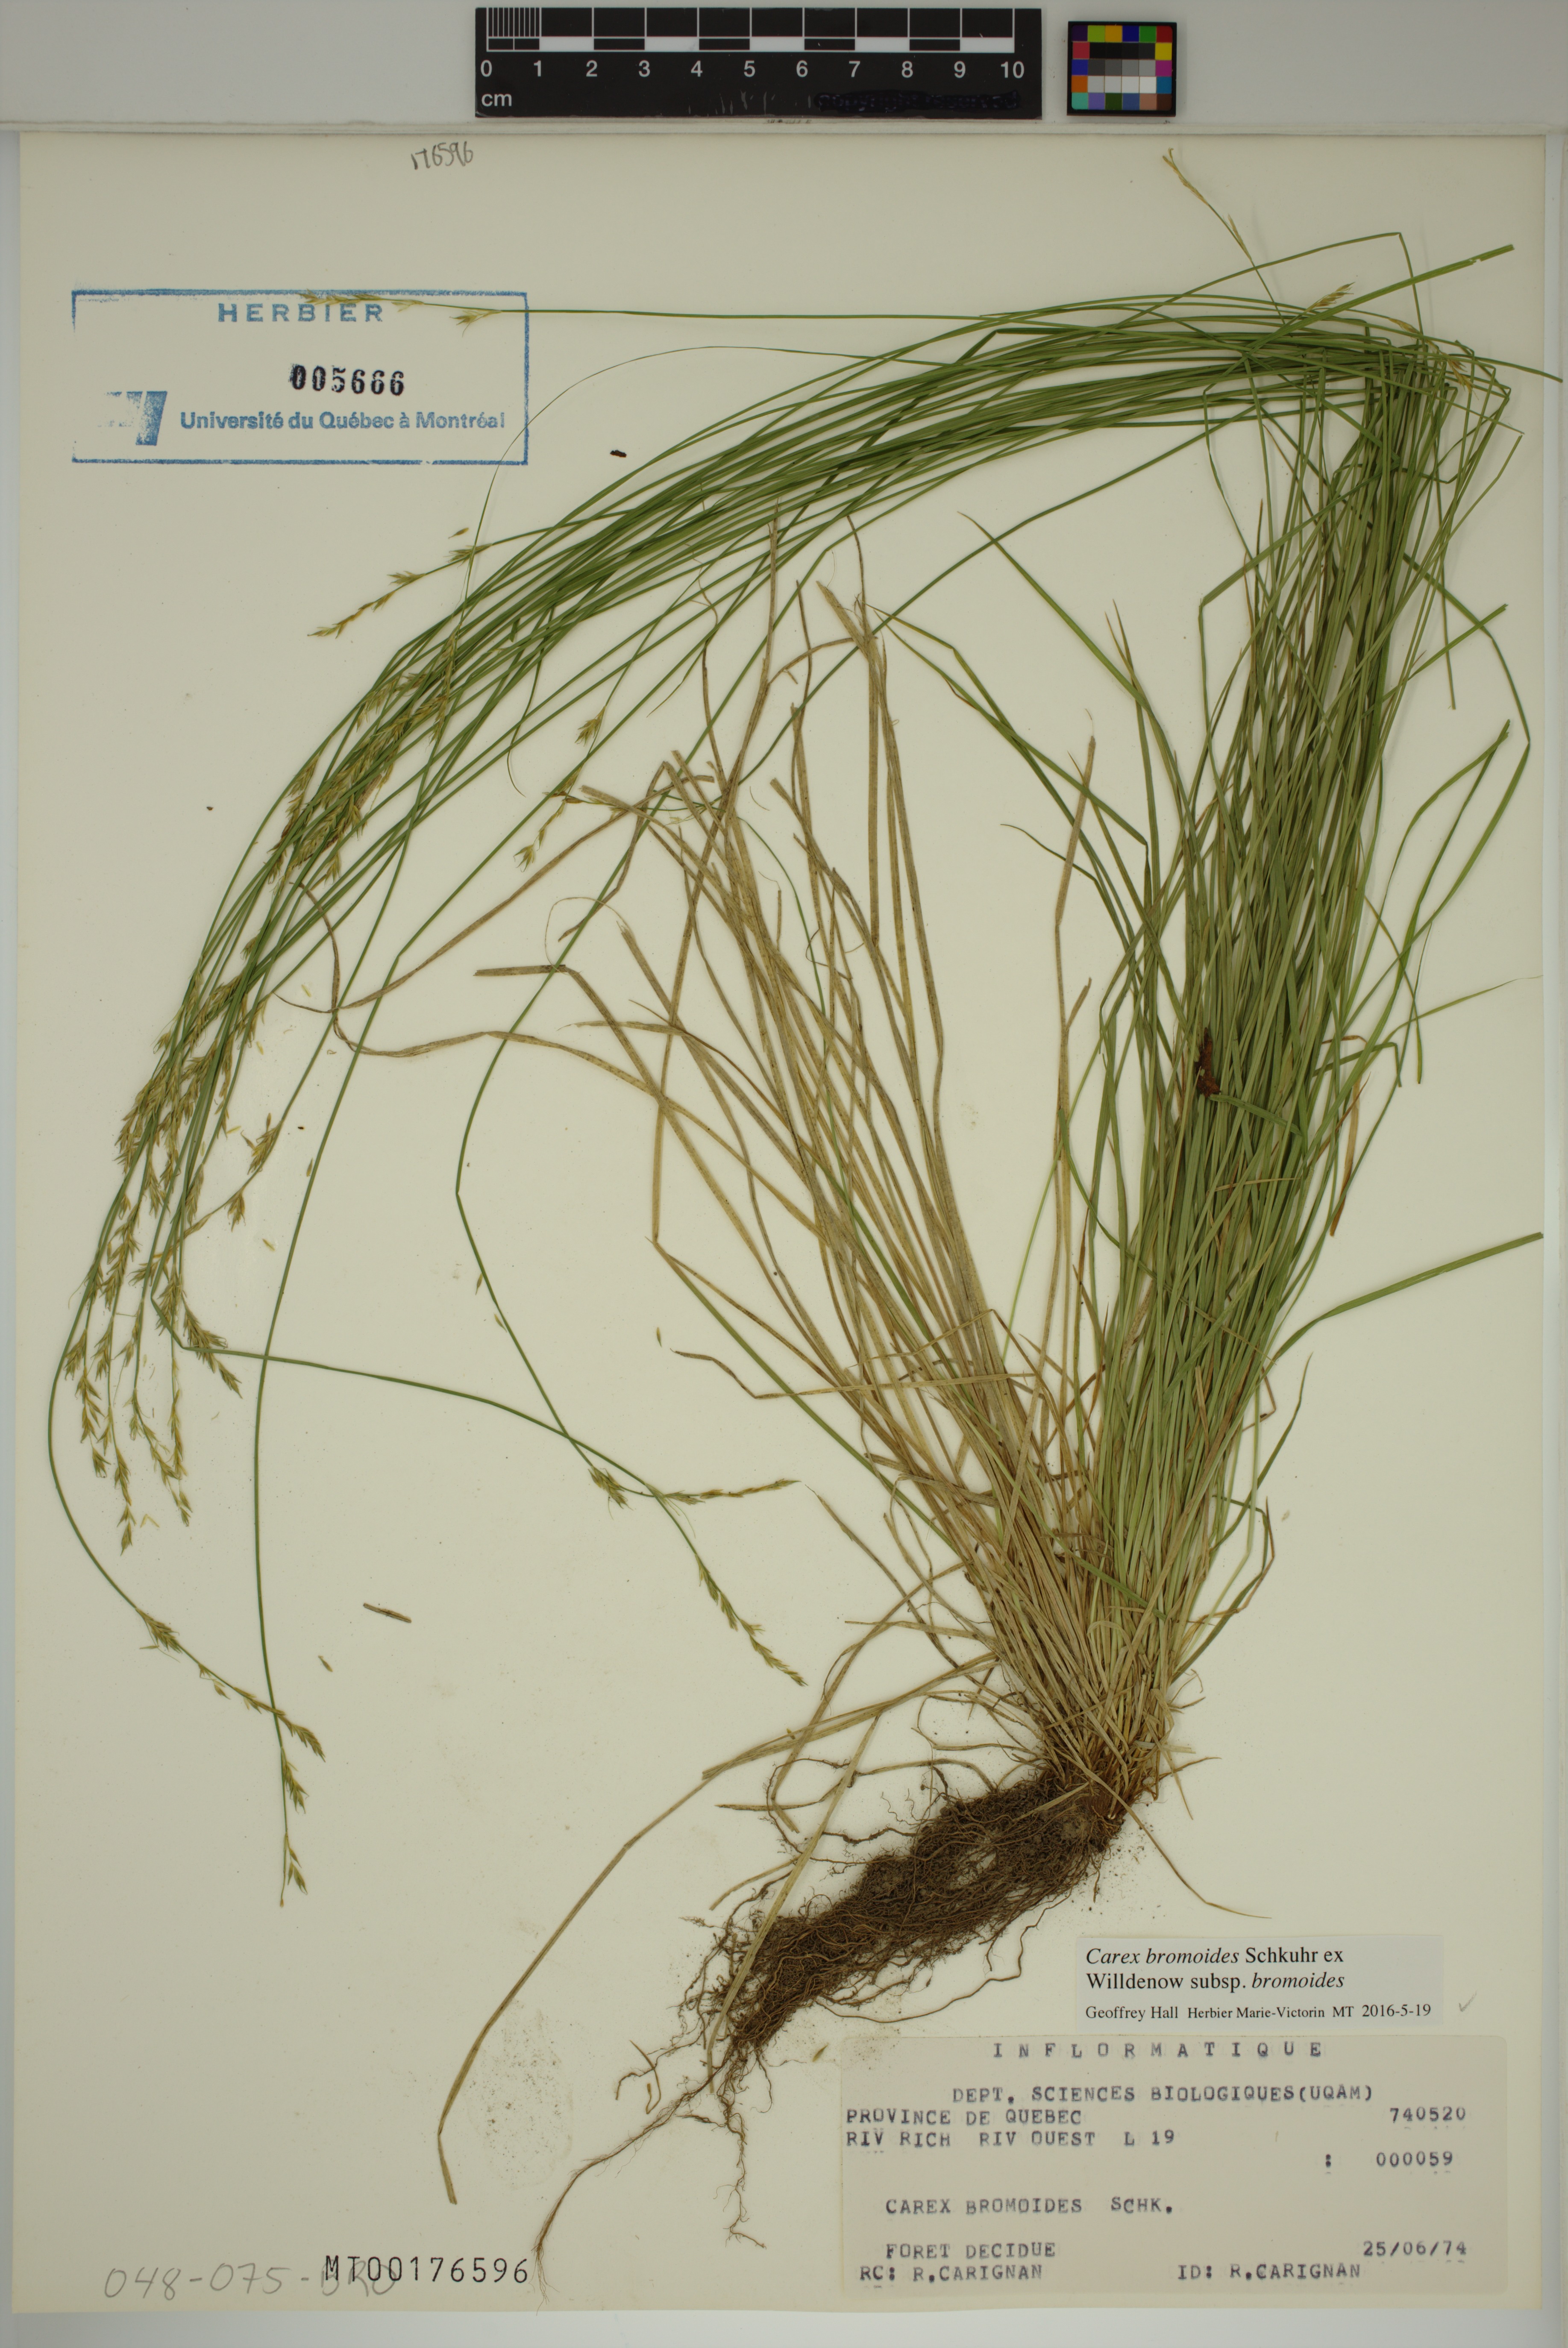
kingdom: Plantae
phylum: Tracheophyta
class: Liliopsida
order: Poales
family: Cyperaceae
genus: Carex
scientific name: Carex bromoides
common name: Brome hummock sedge
